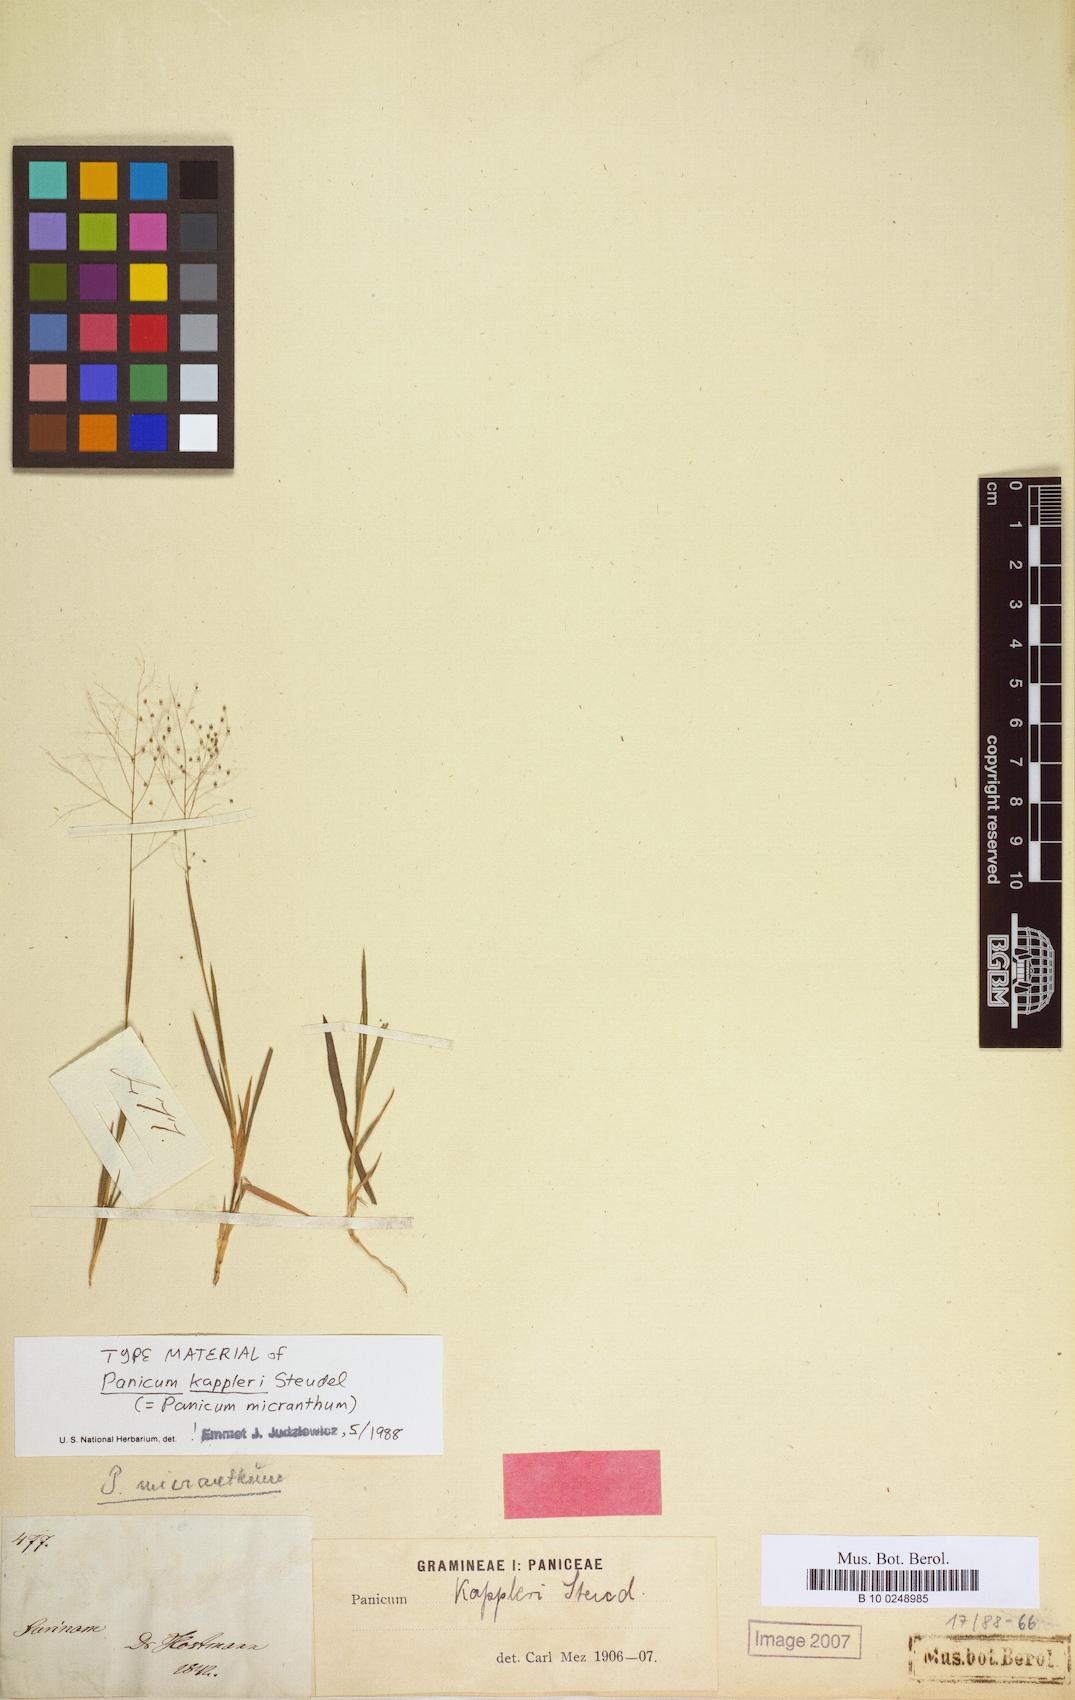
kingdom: Plantae
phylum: Tracheophyta
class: Liliopsida
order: Poales
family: Poaceae
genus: Trichanthecium
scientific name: Trichanthecium micranthum
